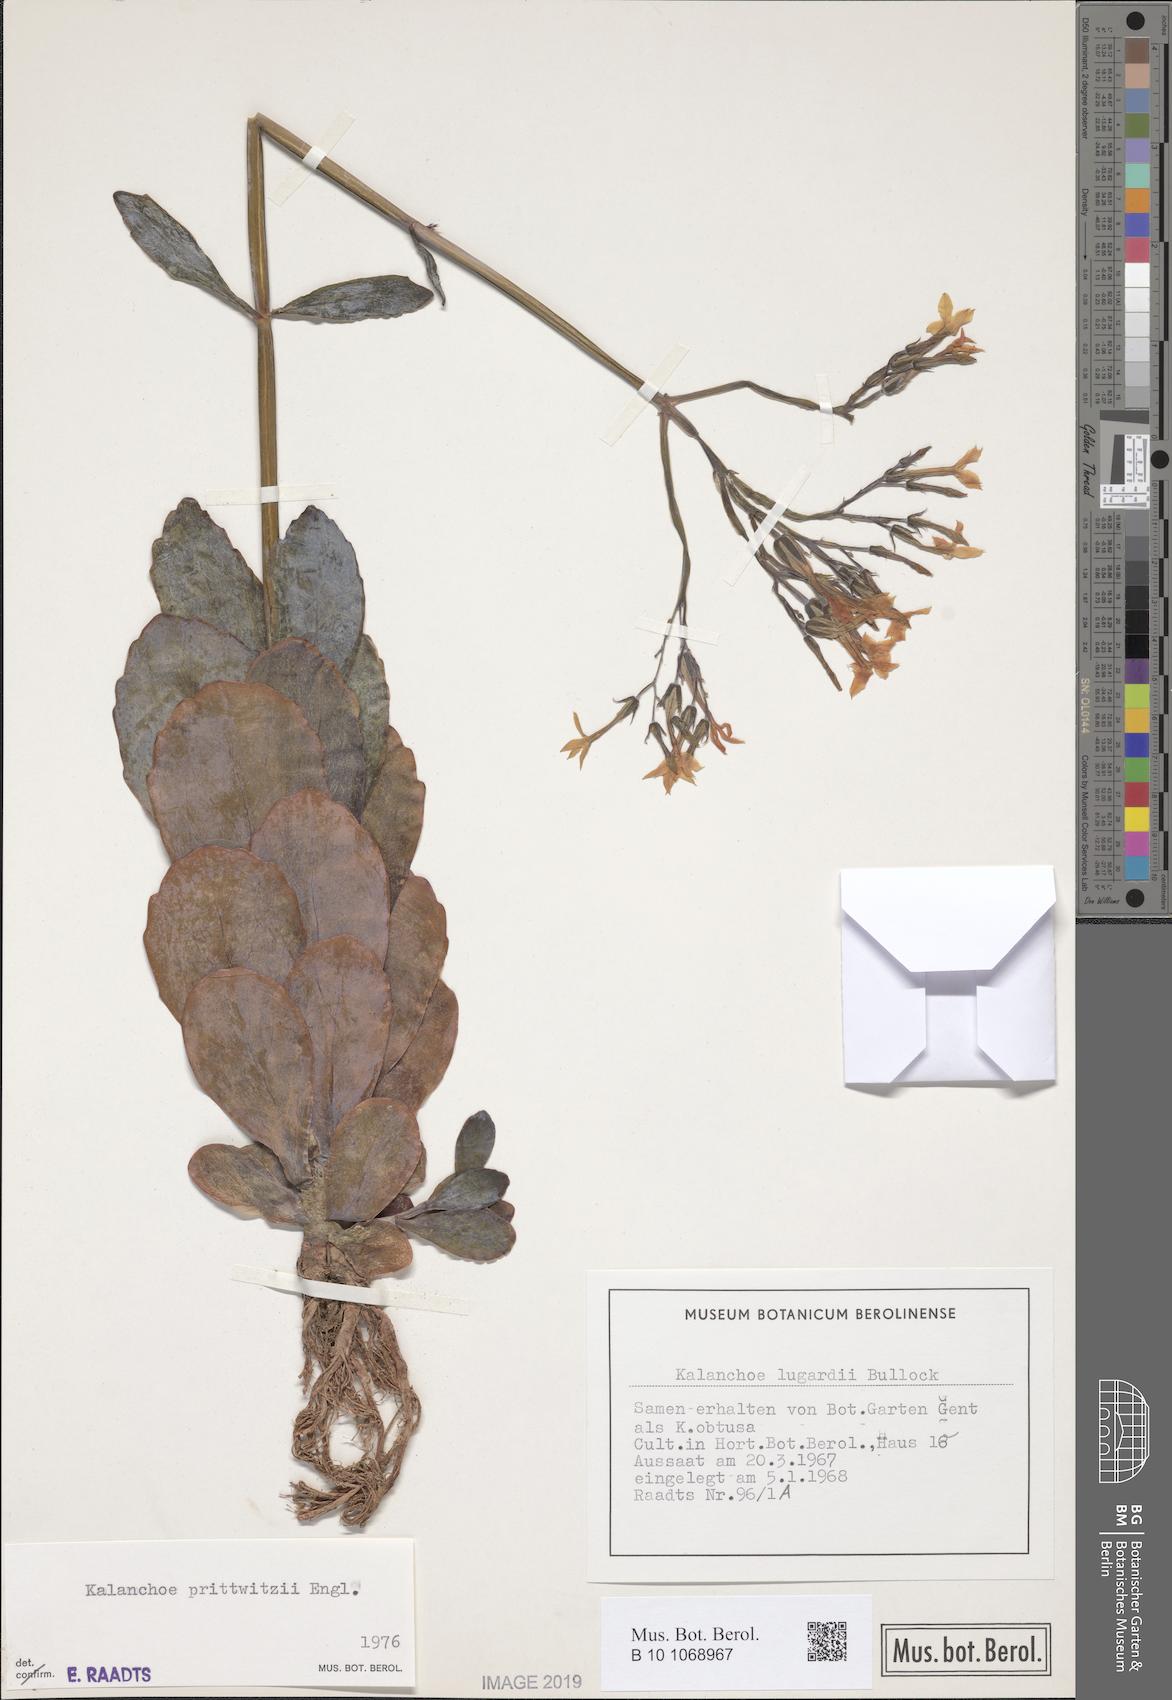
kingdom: Plantae
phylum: Tracheophyta
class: Magnoliopsida
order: Saxifragales
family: Crassulaceae
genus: Kalanchoe
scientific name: Kalanchoe prittwitzii
